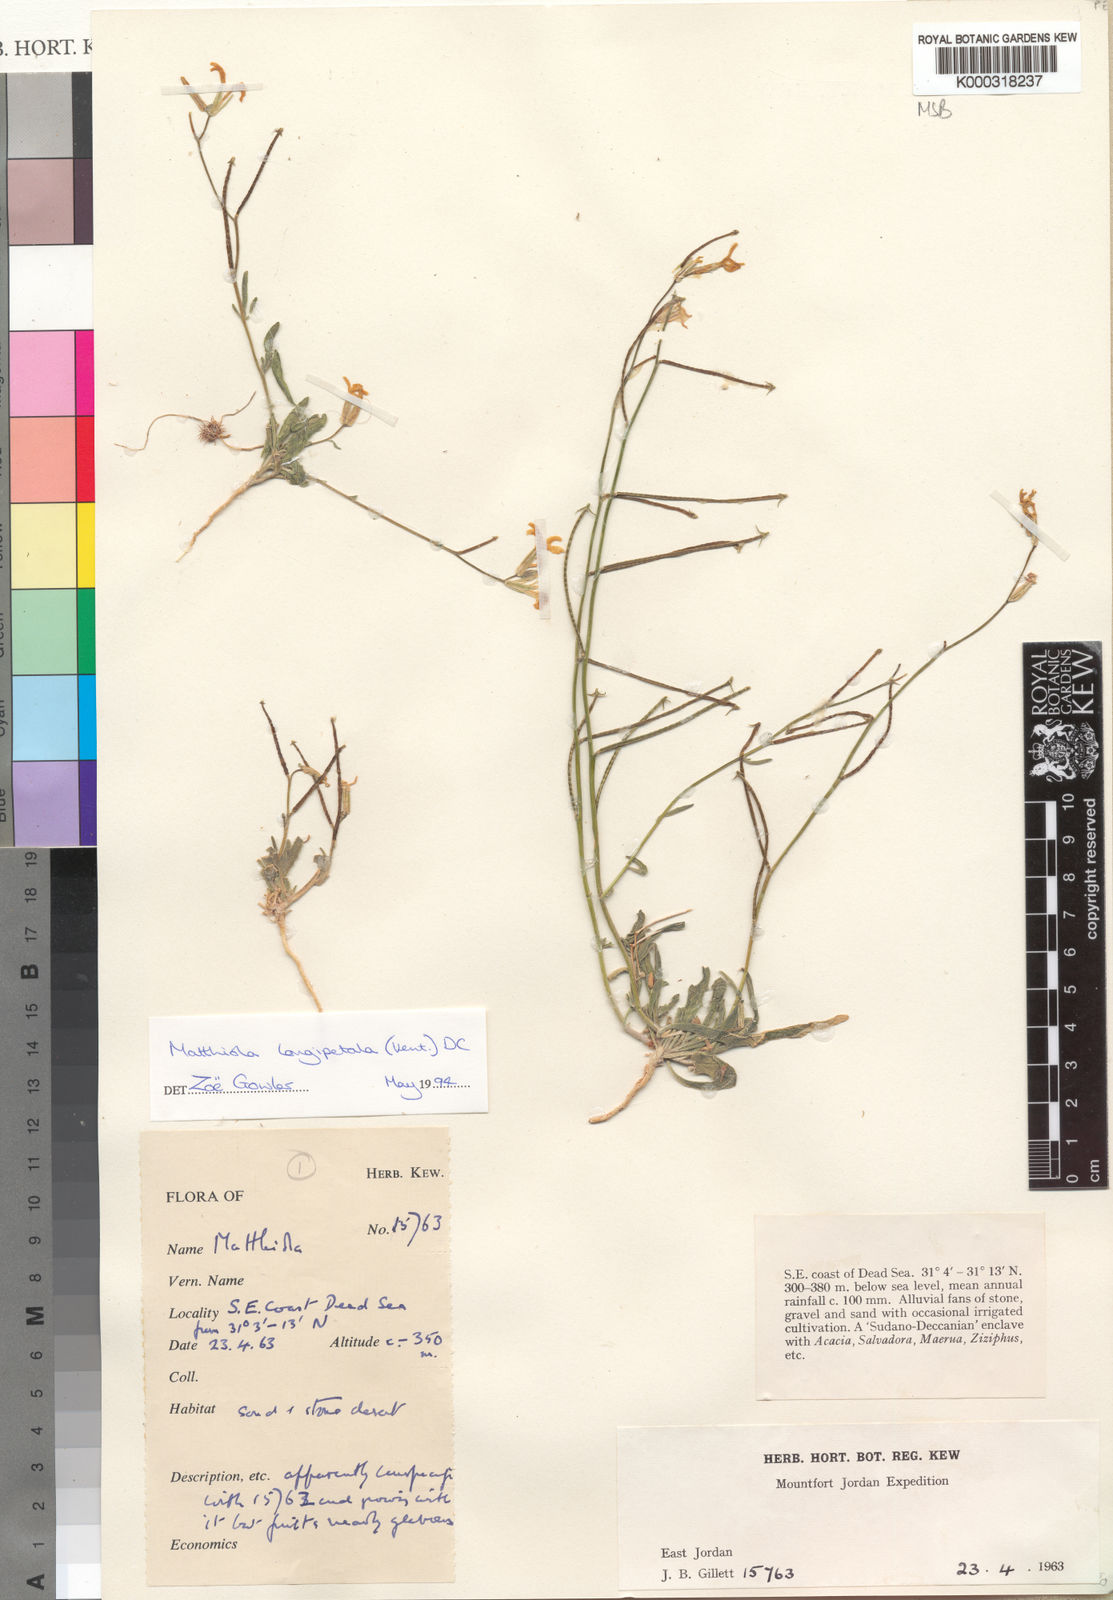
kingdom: Plantae
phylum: Tracheophyta
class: Magnoliopsida
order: Brassicales
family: Brassicaceae
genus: Matthiola
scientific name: Matthiola longipetala
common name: Night-scented stock
